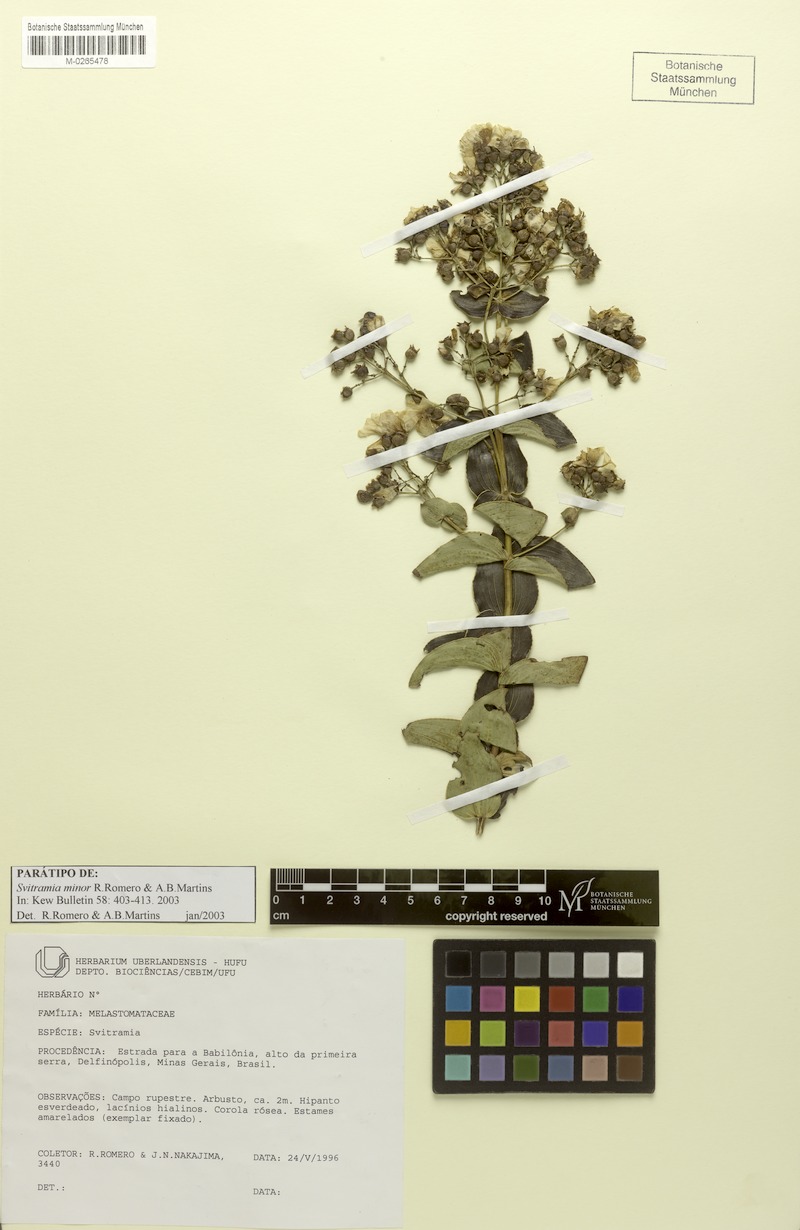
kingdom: Plantae
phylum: Tracheophyta
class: Magnoliopsida
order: Myrtales
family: Melastomataceae
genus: Pleroma
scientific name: Pleroma minus
